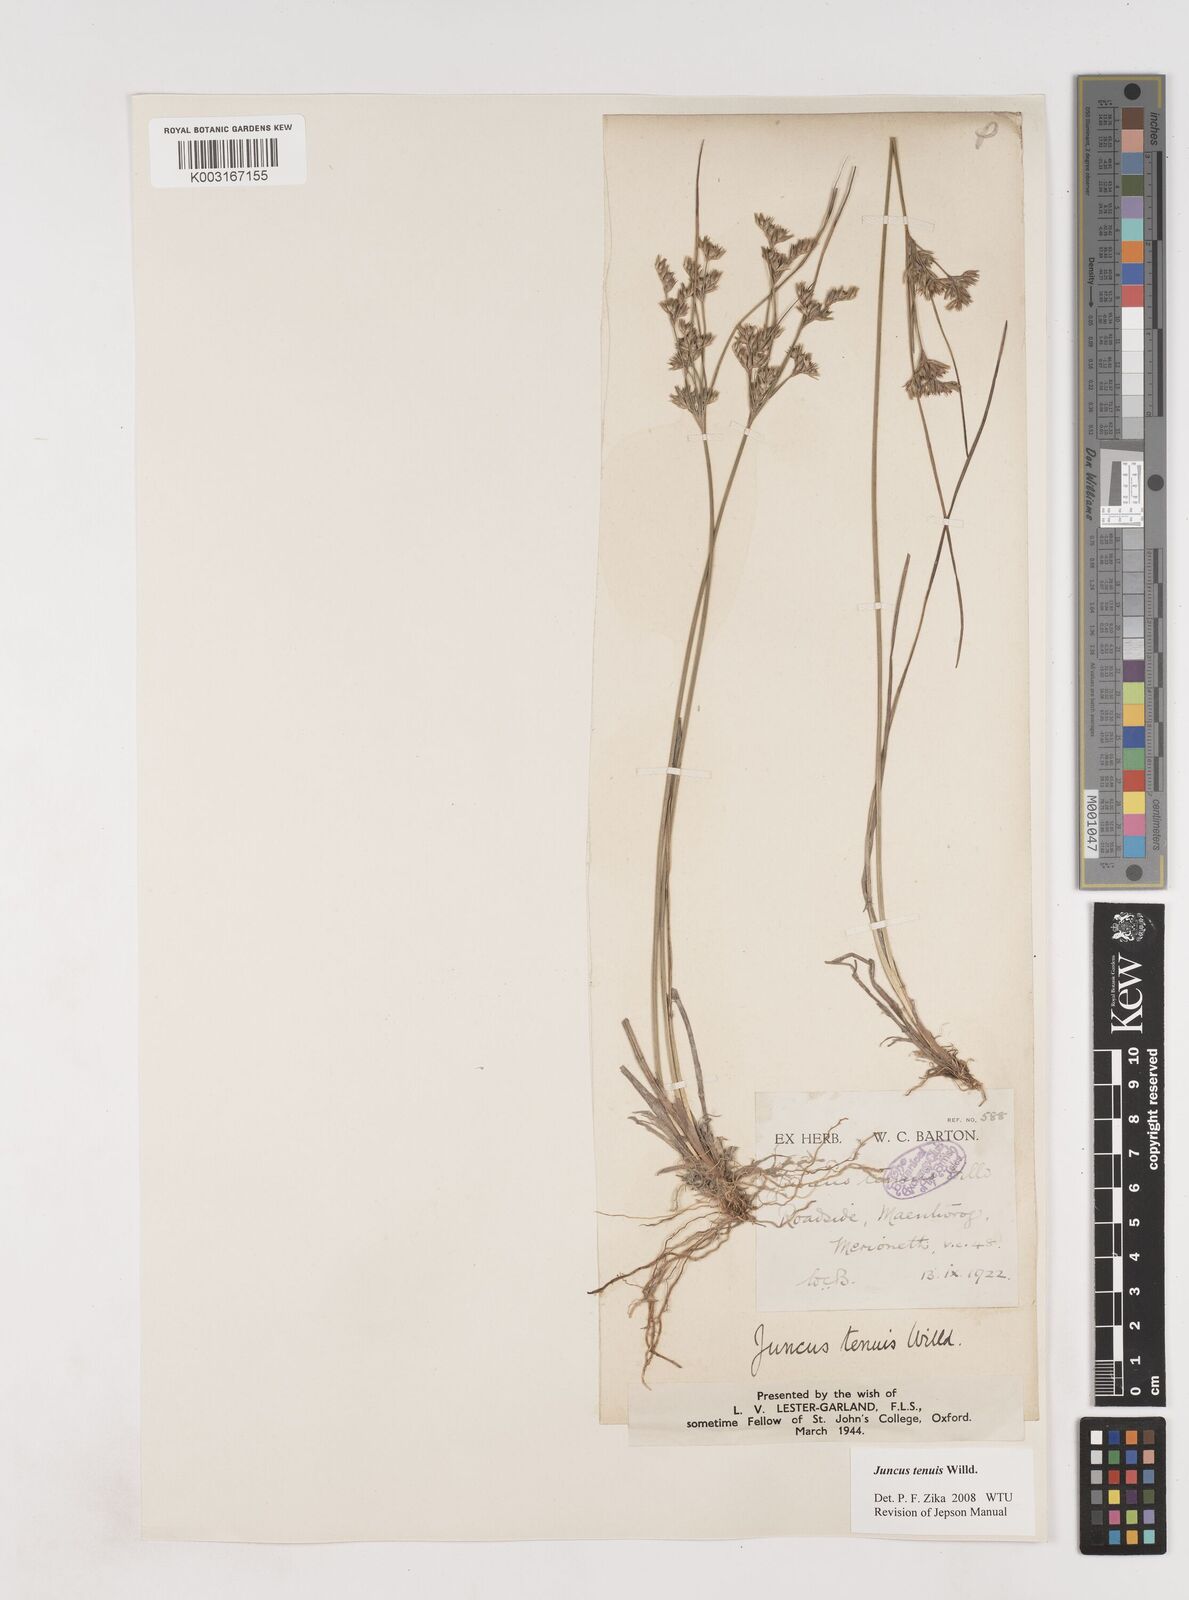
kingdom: Plantae
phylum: Tracheophyta
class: Liliopsida
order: Poales
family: Juncaceae
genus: Juncus
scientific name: Juncus tenuis
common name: Slender rush
